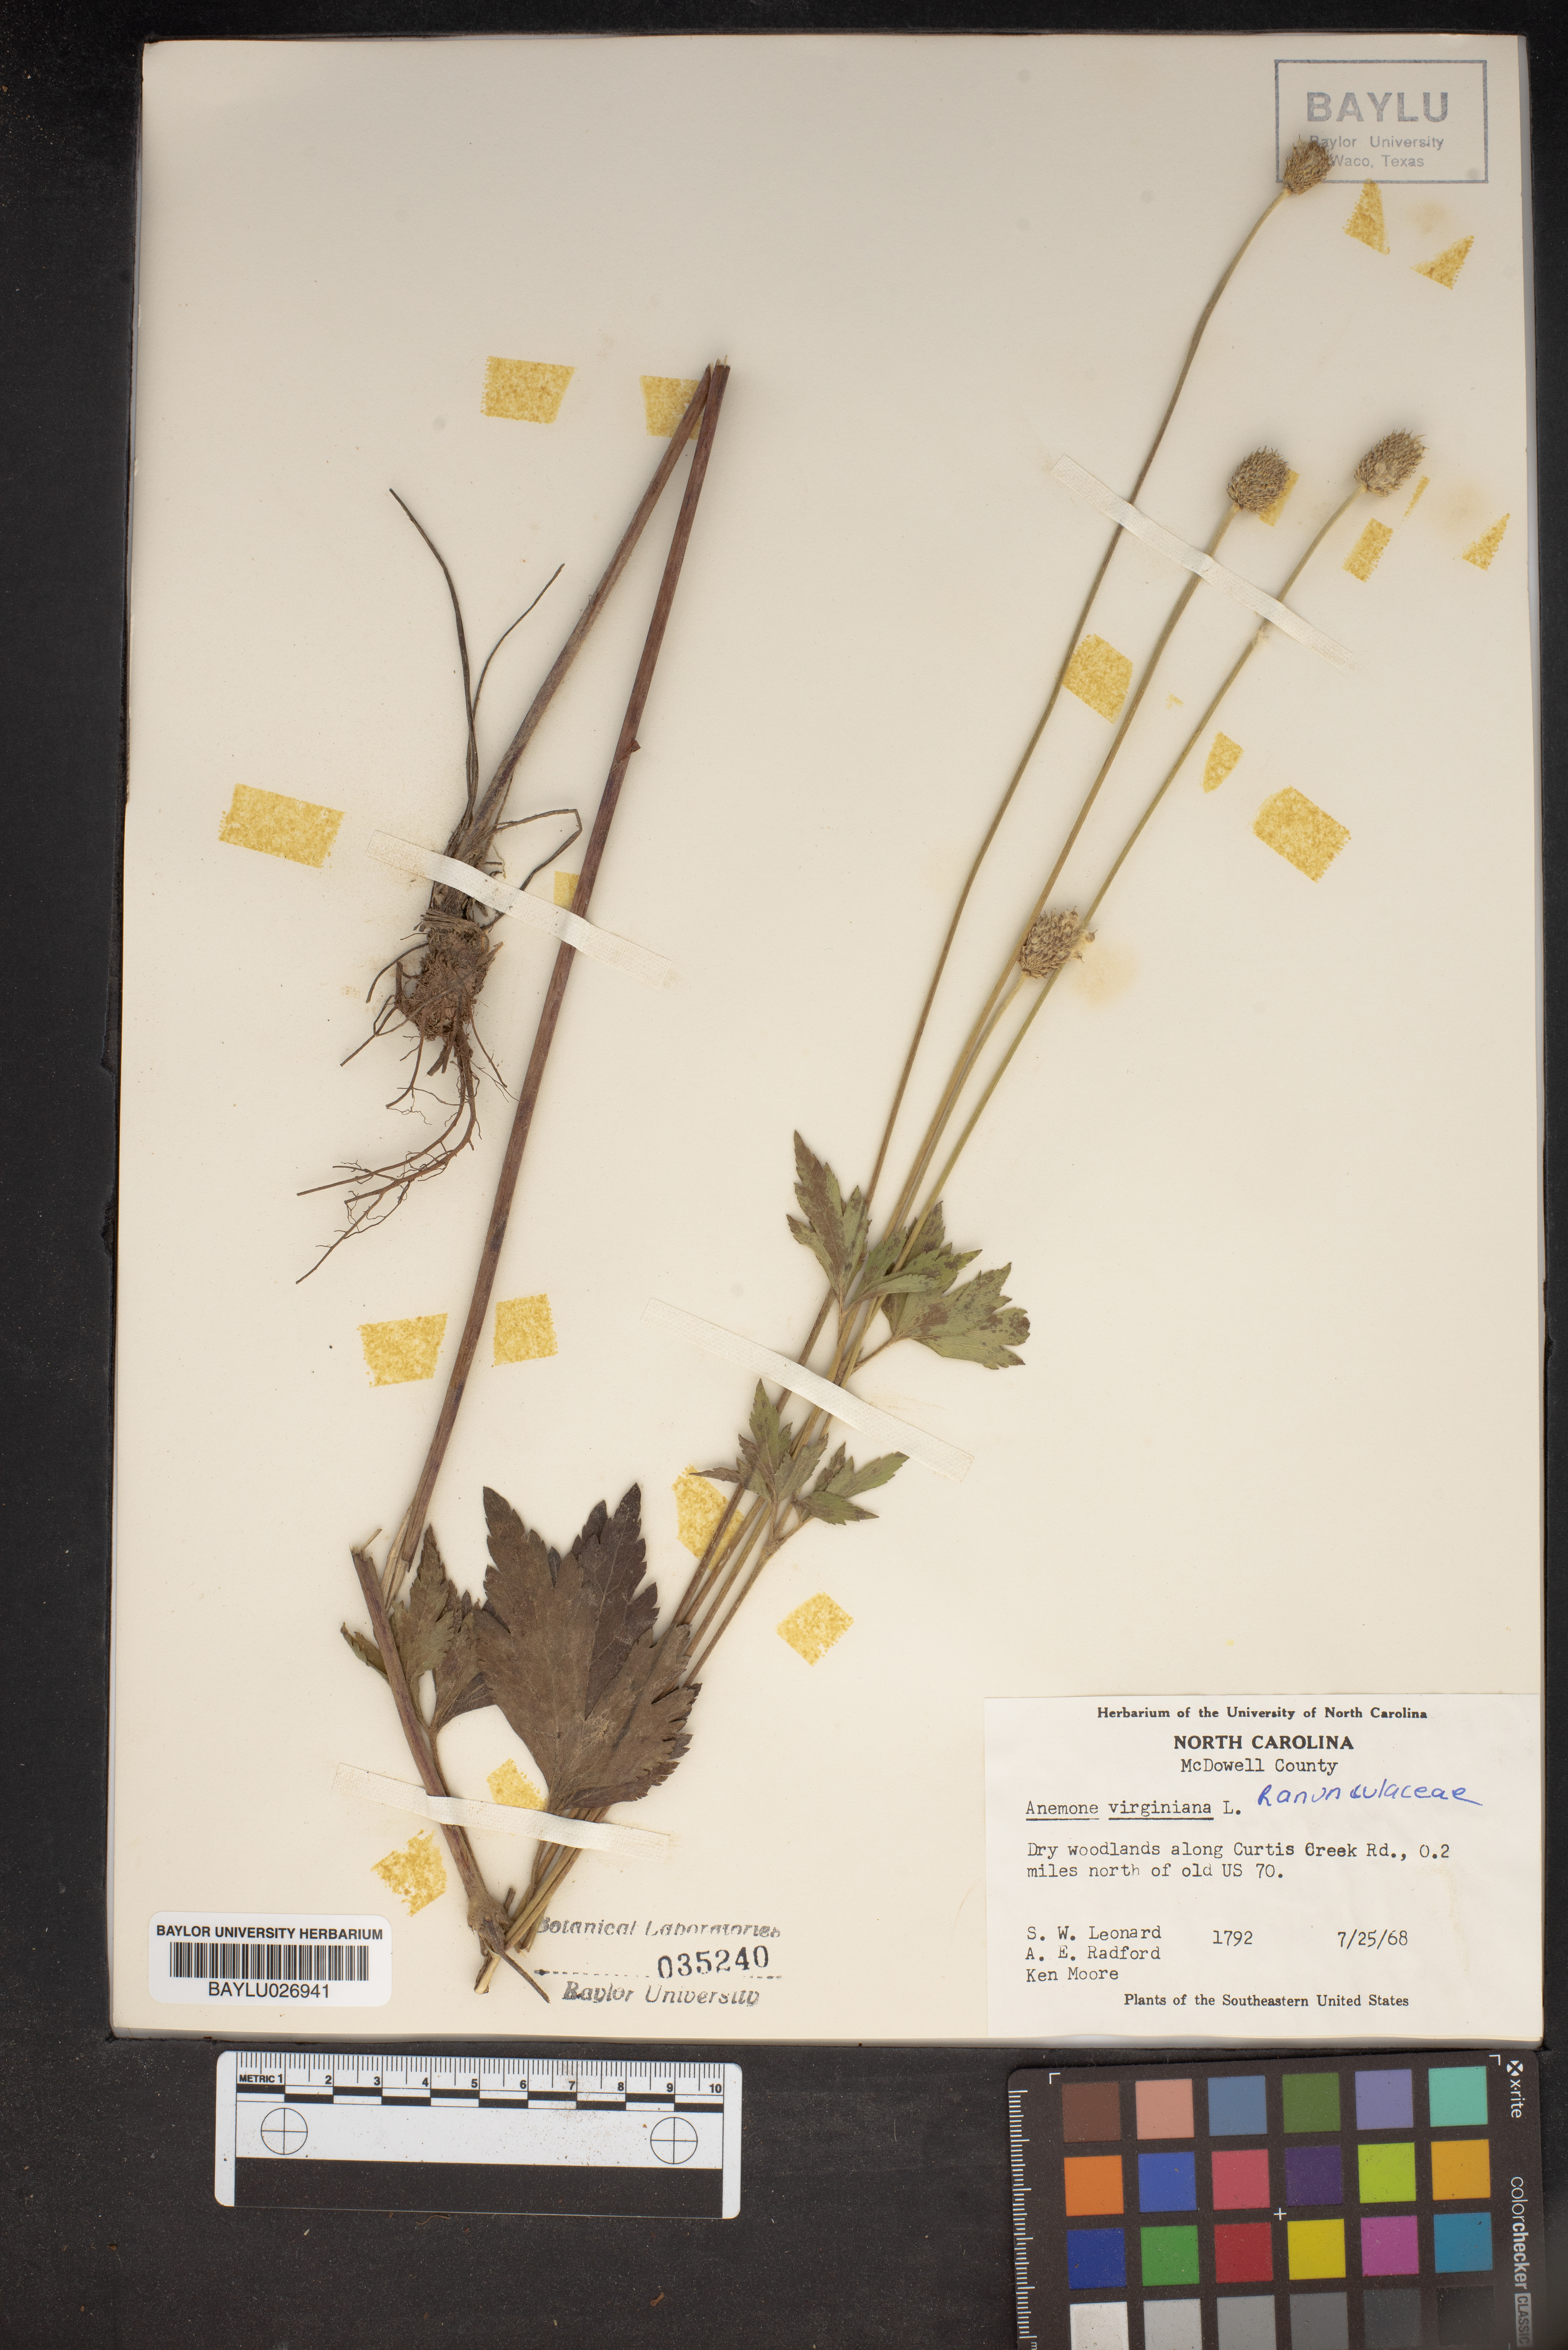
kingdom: Plantae
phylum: Tracheophyta
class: Magnoliopsida
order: Ranunculales
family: Ranunculaceae
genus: Anemone
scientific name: Anemone virginiana
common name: Tall anemone
